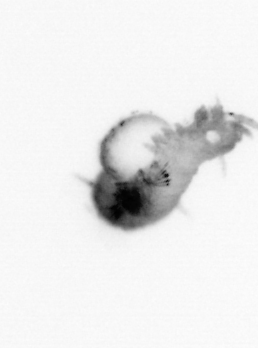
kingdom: Animalia
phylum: Annelida
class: Polychaeta
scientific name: Polychaeta
